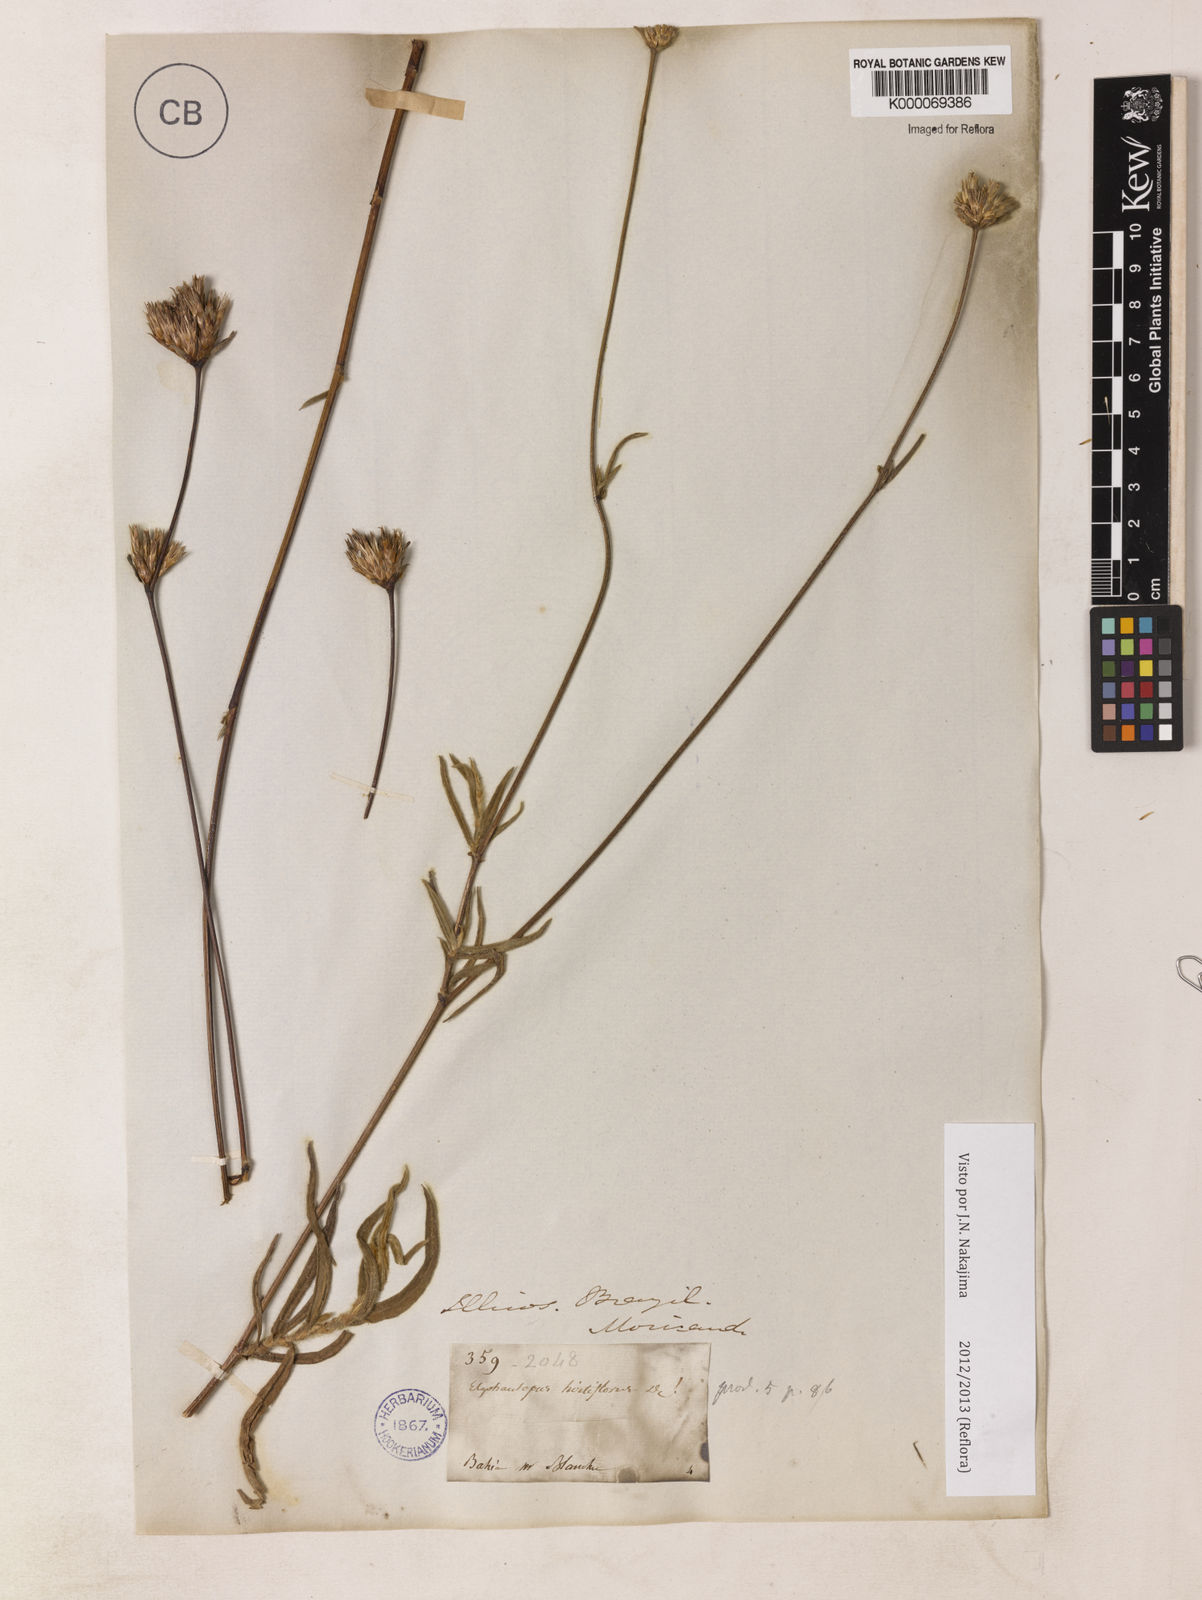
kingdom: Plantae
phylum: Tracheophyta
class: Magnoliopsida
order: Asterales
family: Asteraceae
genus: Elephantopus
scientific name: Elephantopus hirtiflorus
